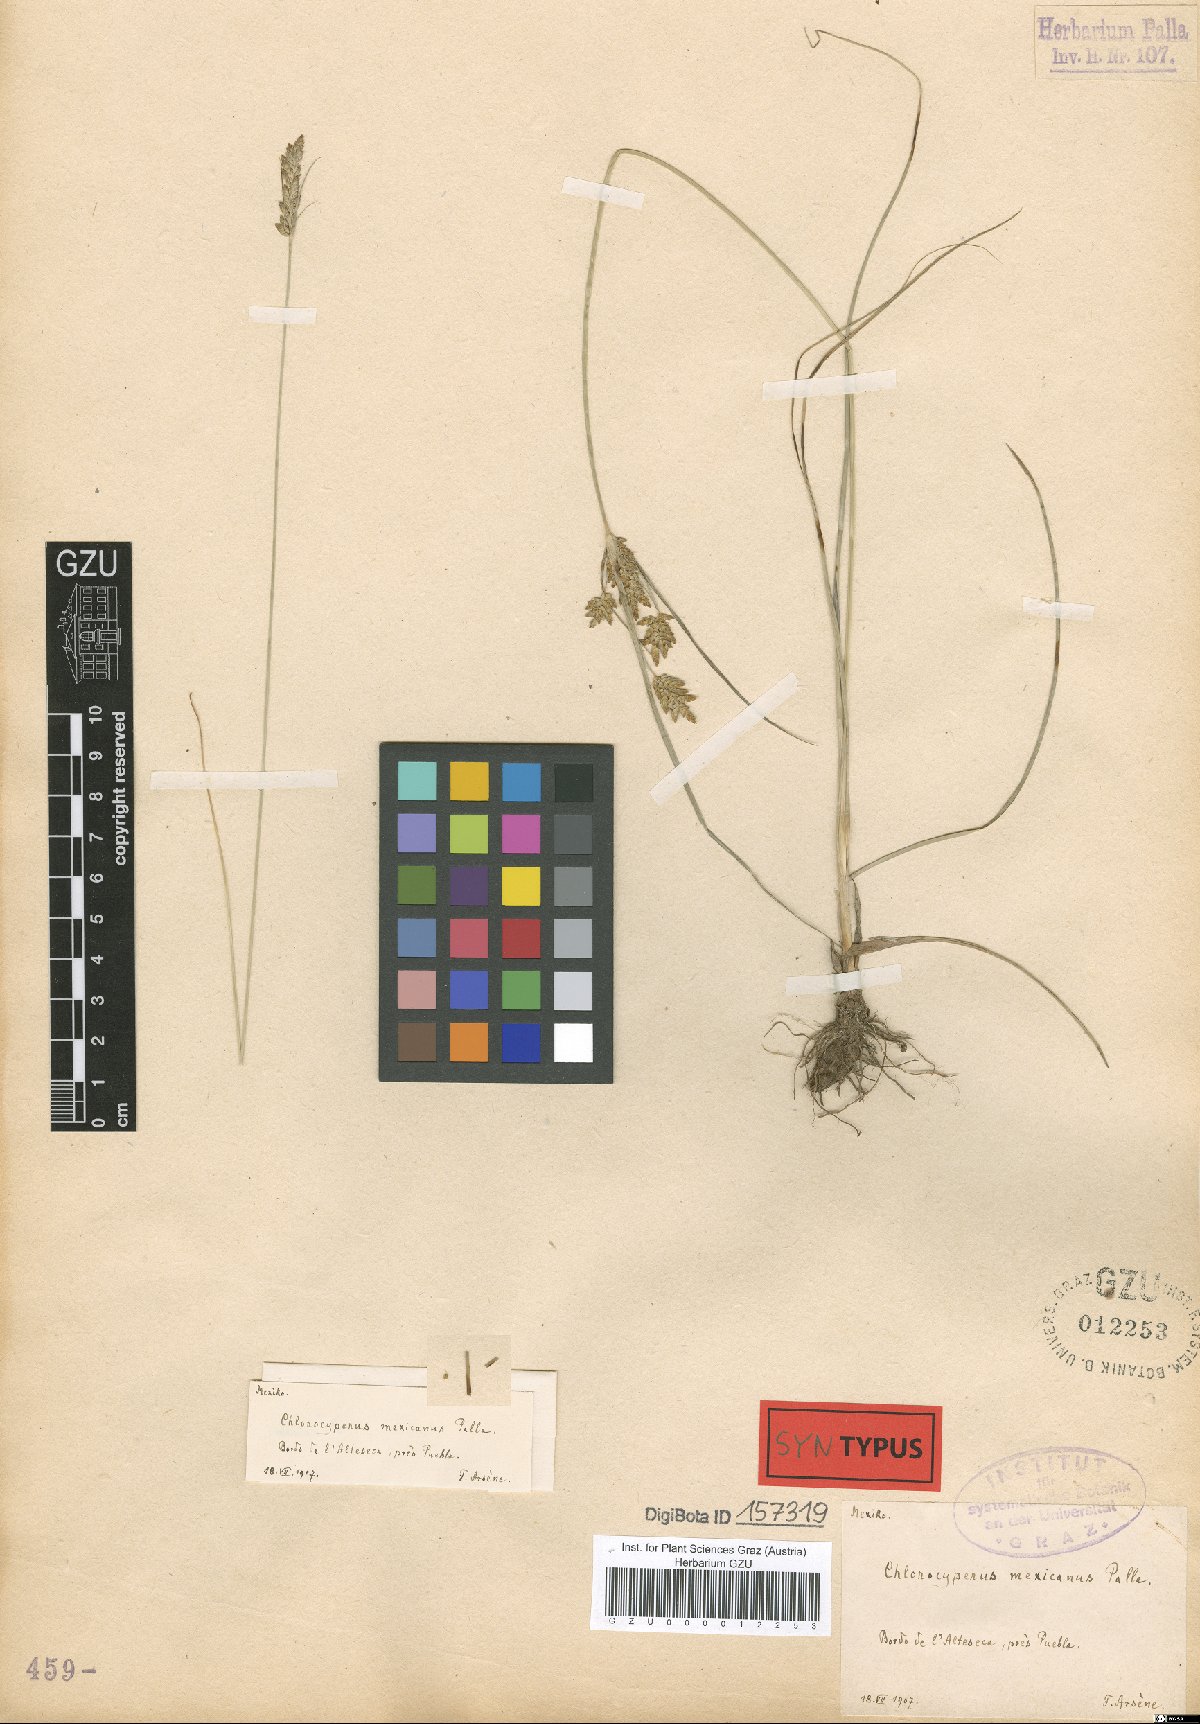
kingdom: Plantae
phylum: Tracheophyta
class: Liliopsida
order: Poales
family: Cyperaceae
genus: Cyperus
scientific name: Cyperus fendlerianus
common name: Fendler flat sedge
